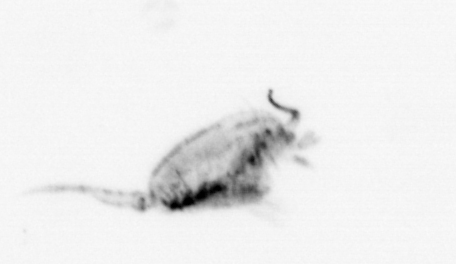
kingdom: Animalia
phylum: Arthropoda
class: Copepoda
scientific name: Copepoda
